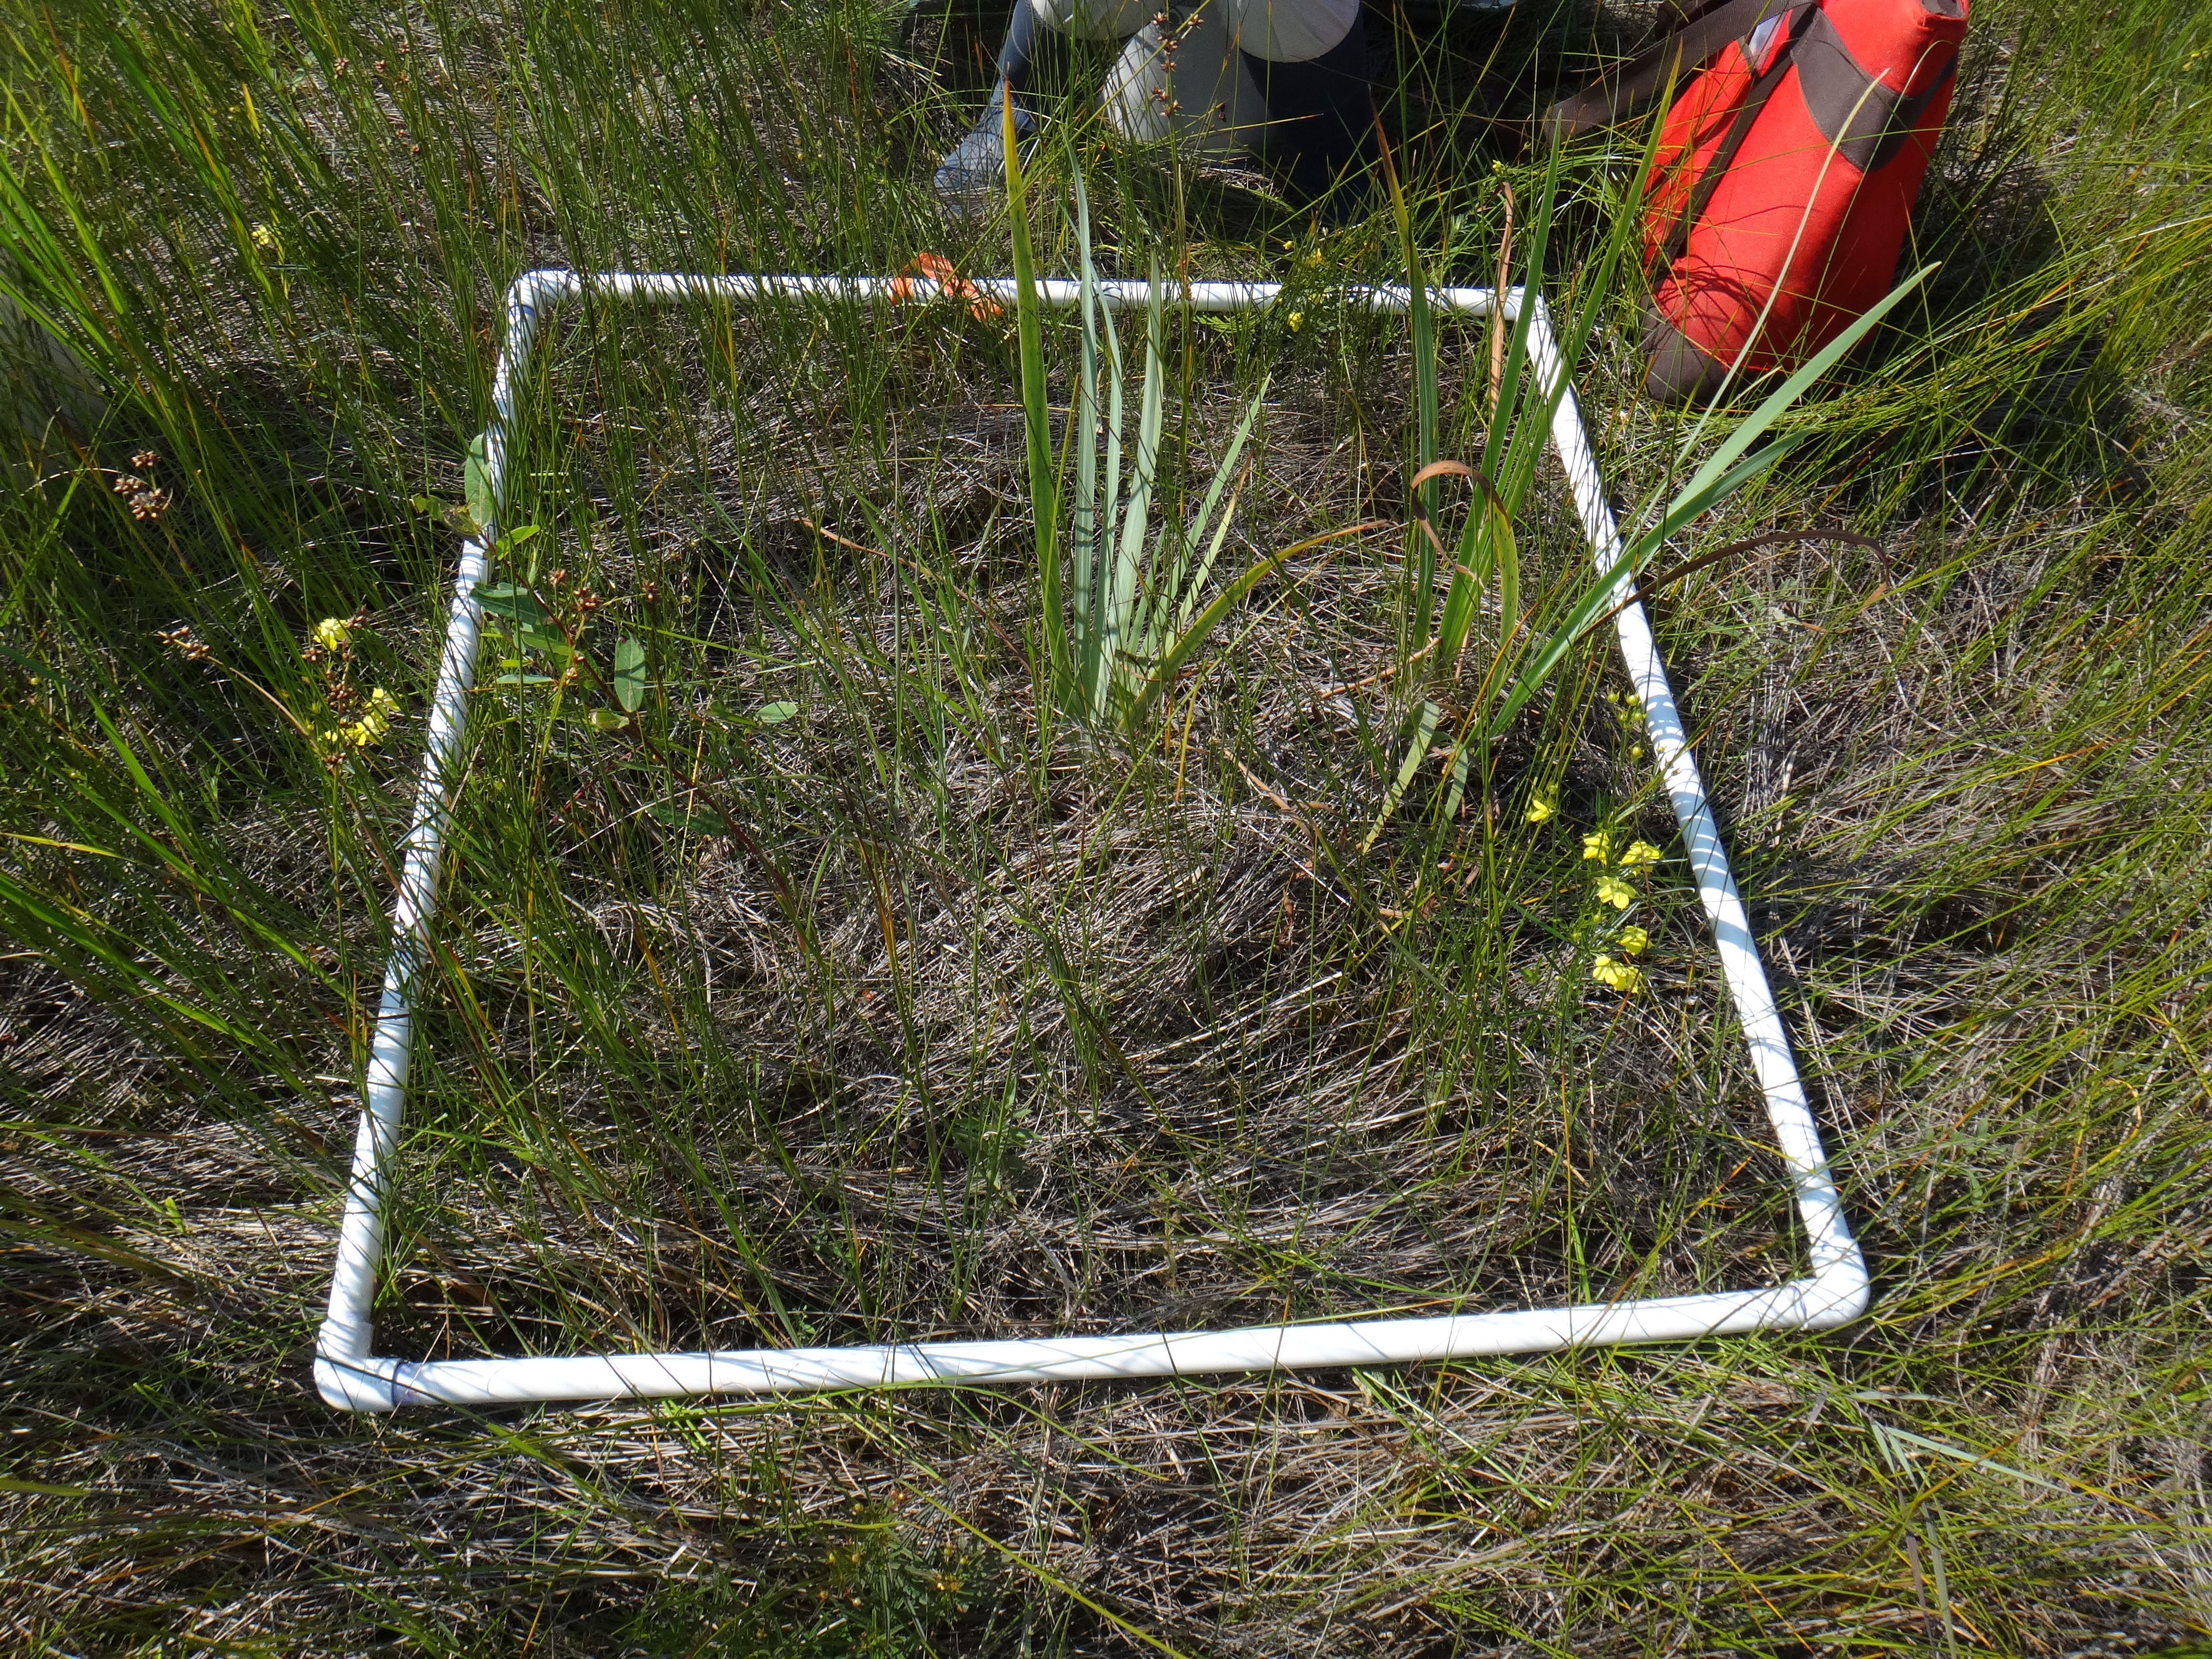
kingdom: Plantae
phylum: Tracheophyta
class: Liliopsida
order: Asparagales
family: Iridaceae
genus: Iris
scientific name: Iris virginica
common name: Southern blue flag
